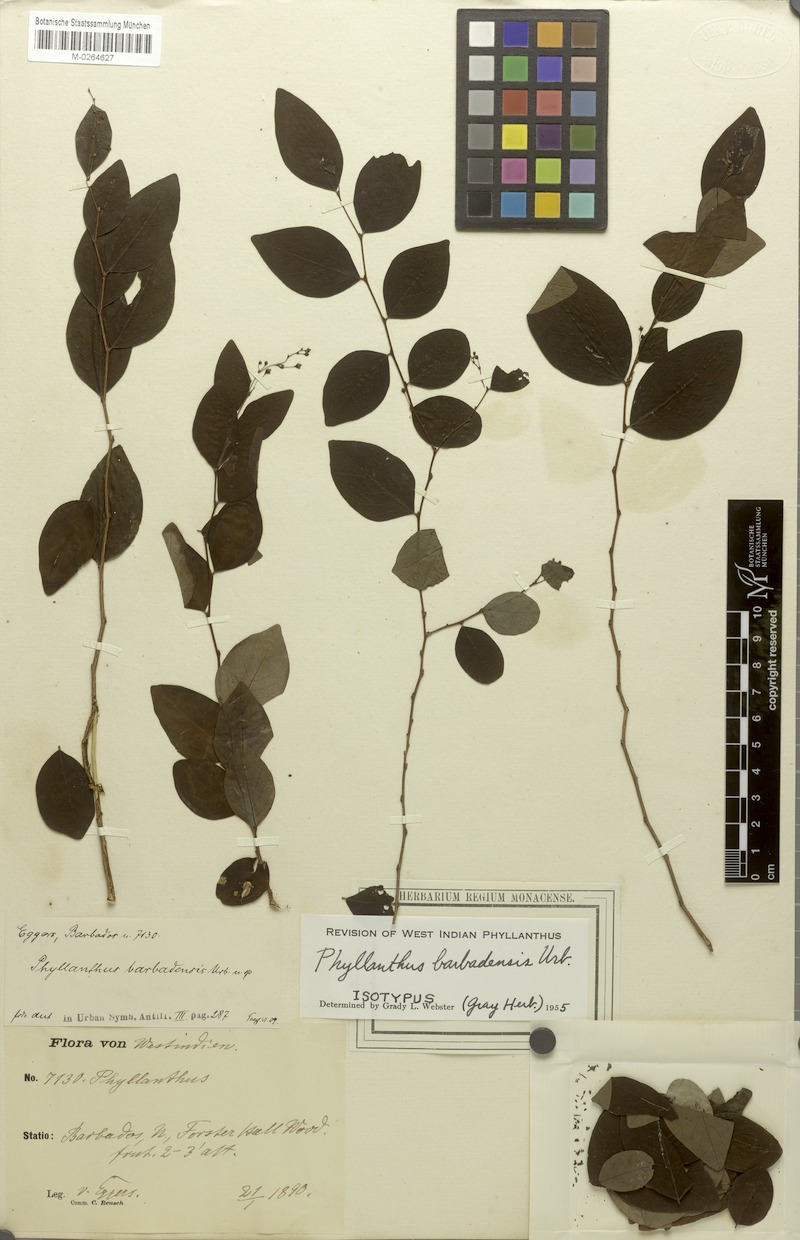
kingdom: Plantae
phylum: Tracheophyta
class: Magnoliopsida
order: Malpighiales
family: Phyllanthaceae
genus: Phyllanthus
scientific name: Phyllanthus anderssonii
